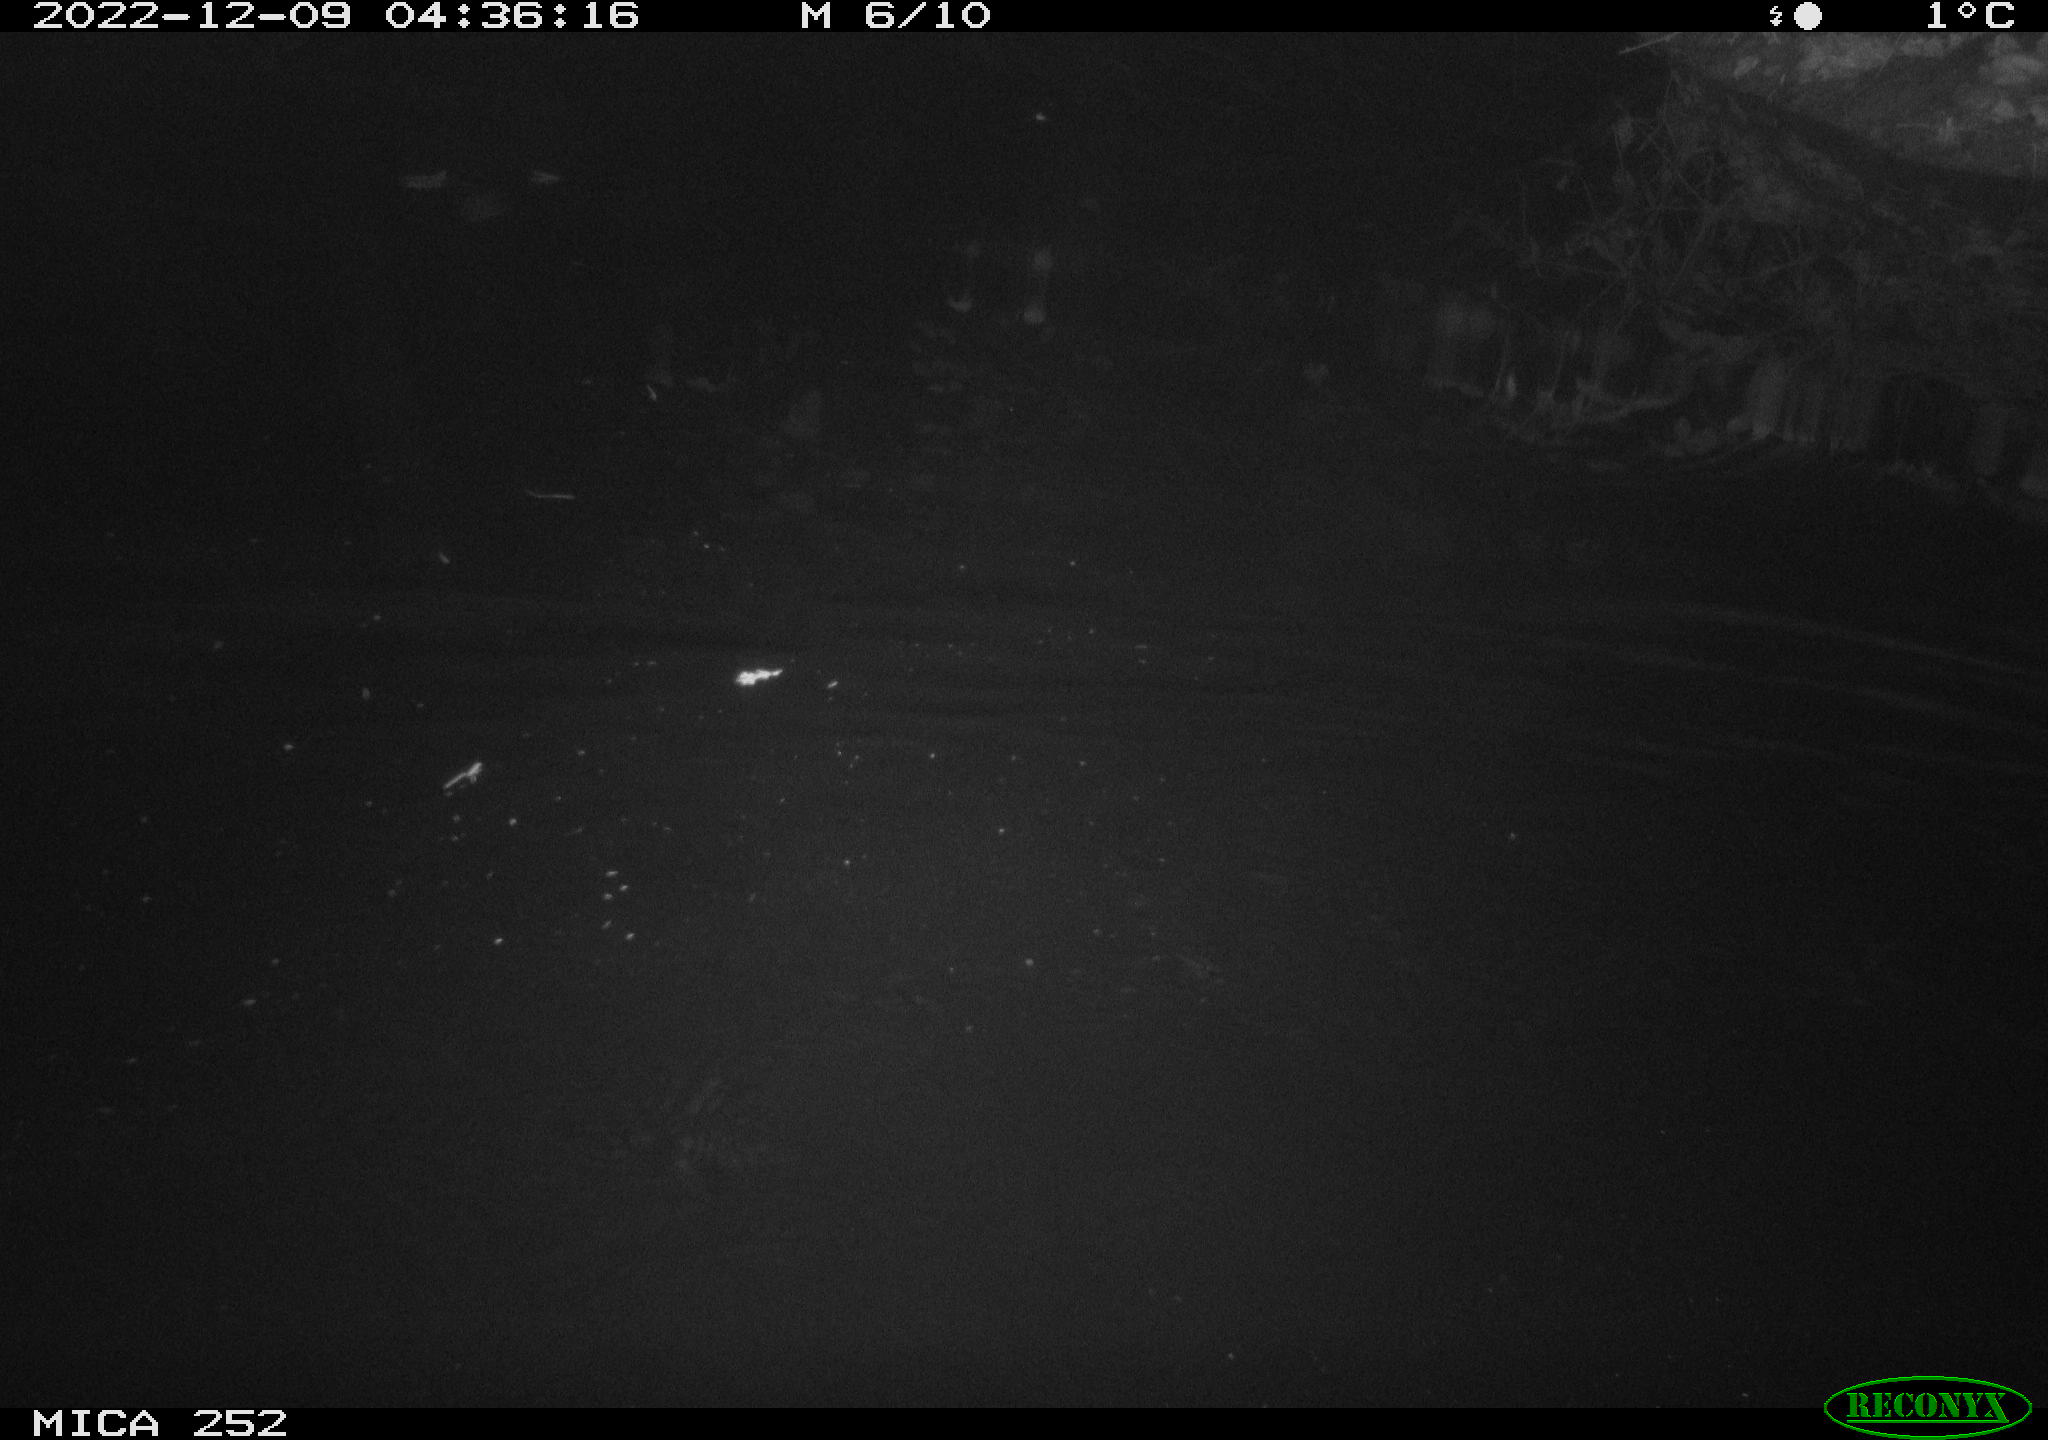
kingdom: Animalia
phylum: Chordata
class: Mammalia
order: Rodentia
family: Castoridae
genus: Castor
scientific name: Castor fiber
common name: Eurasian beaver
